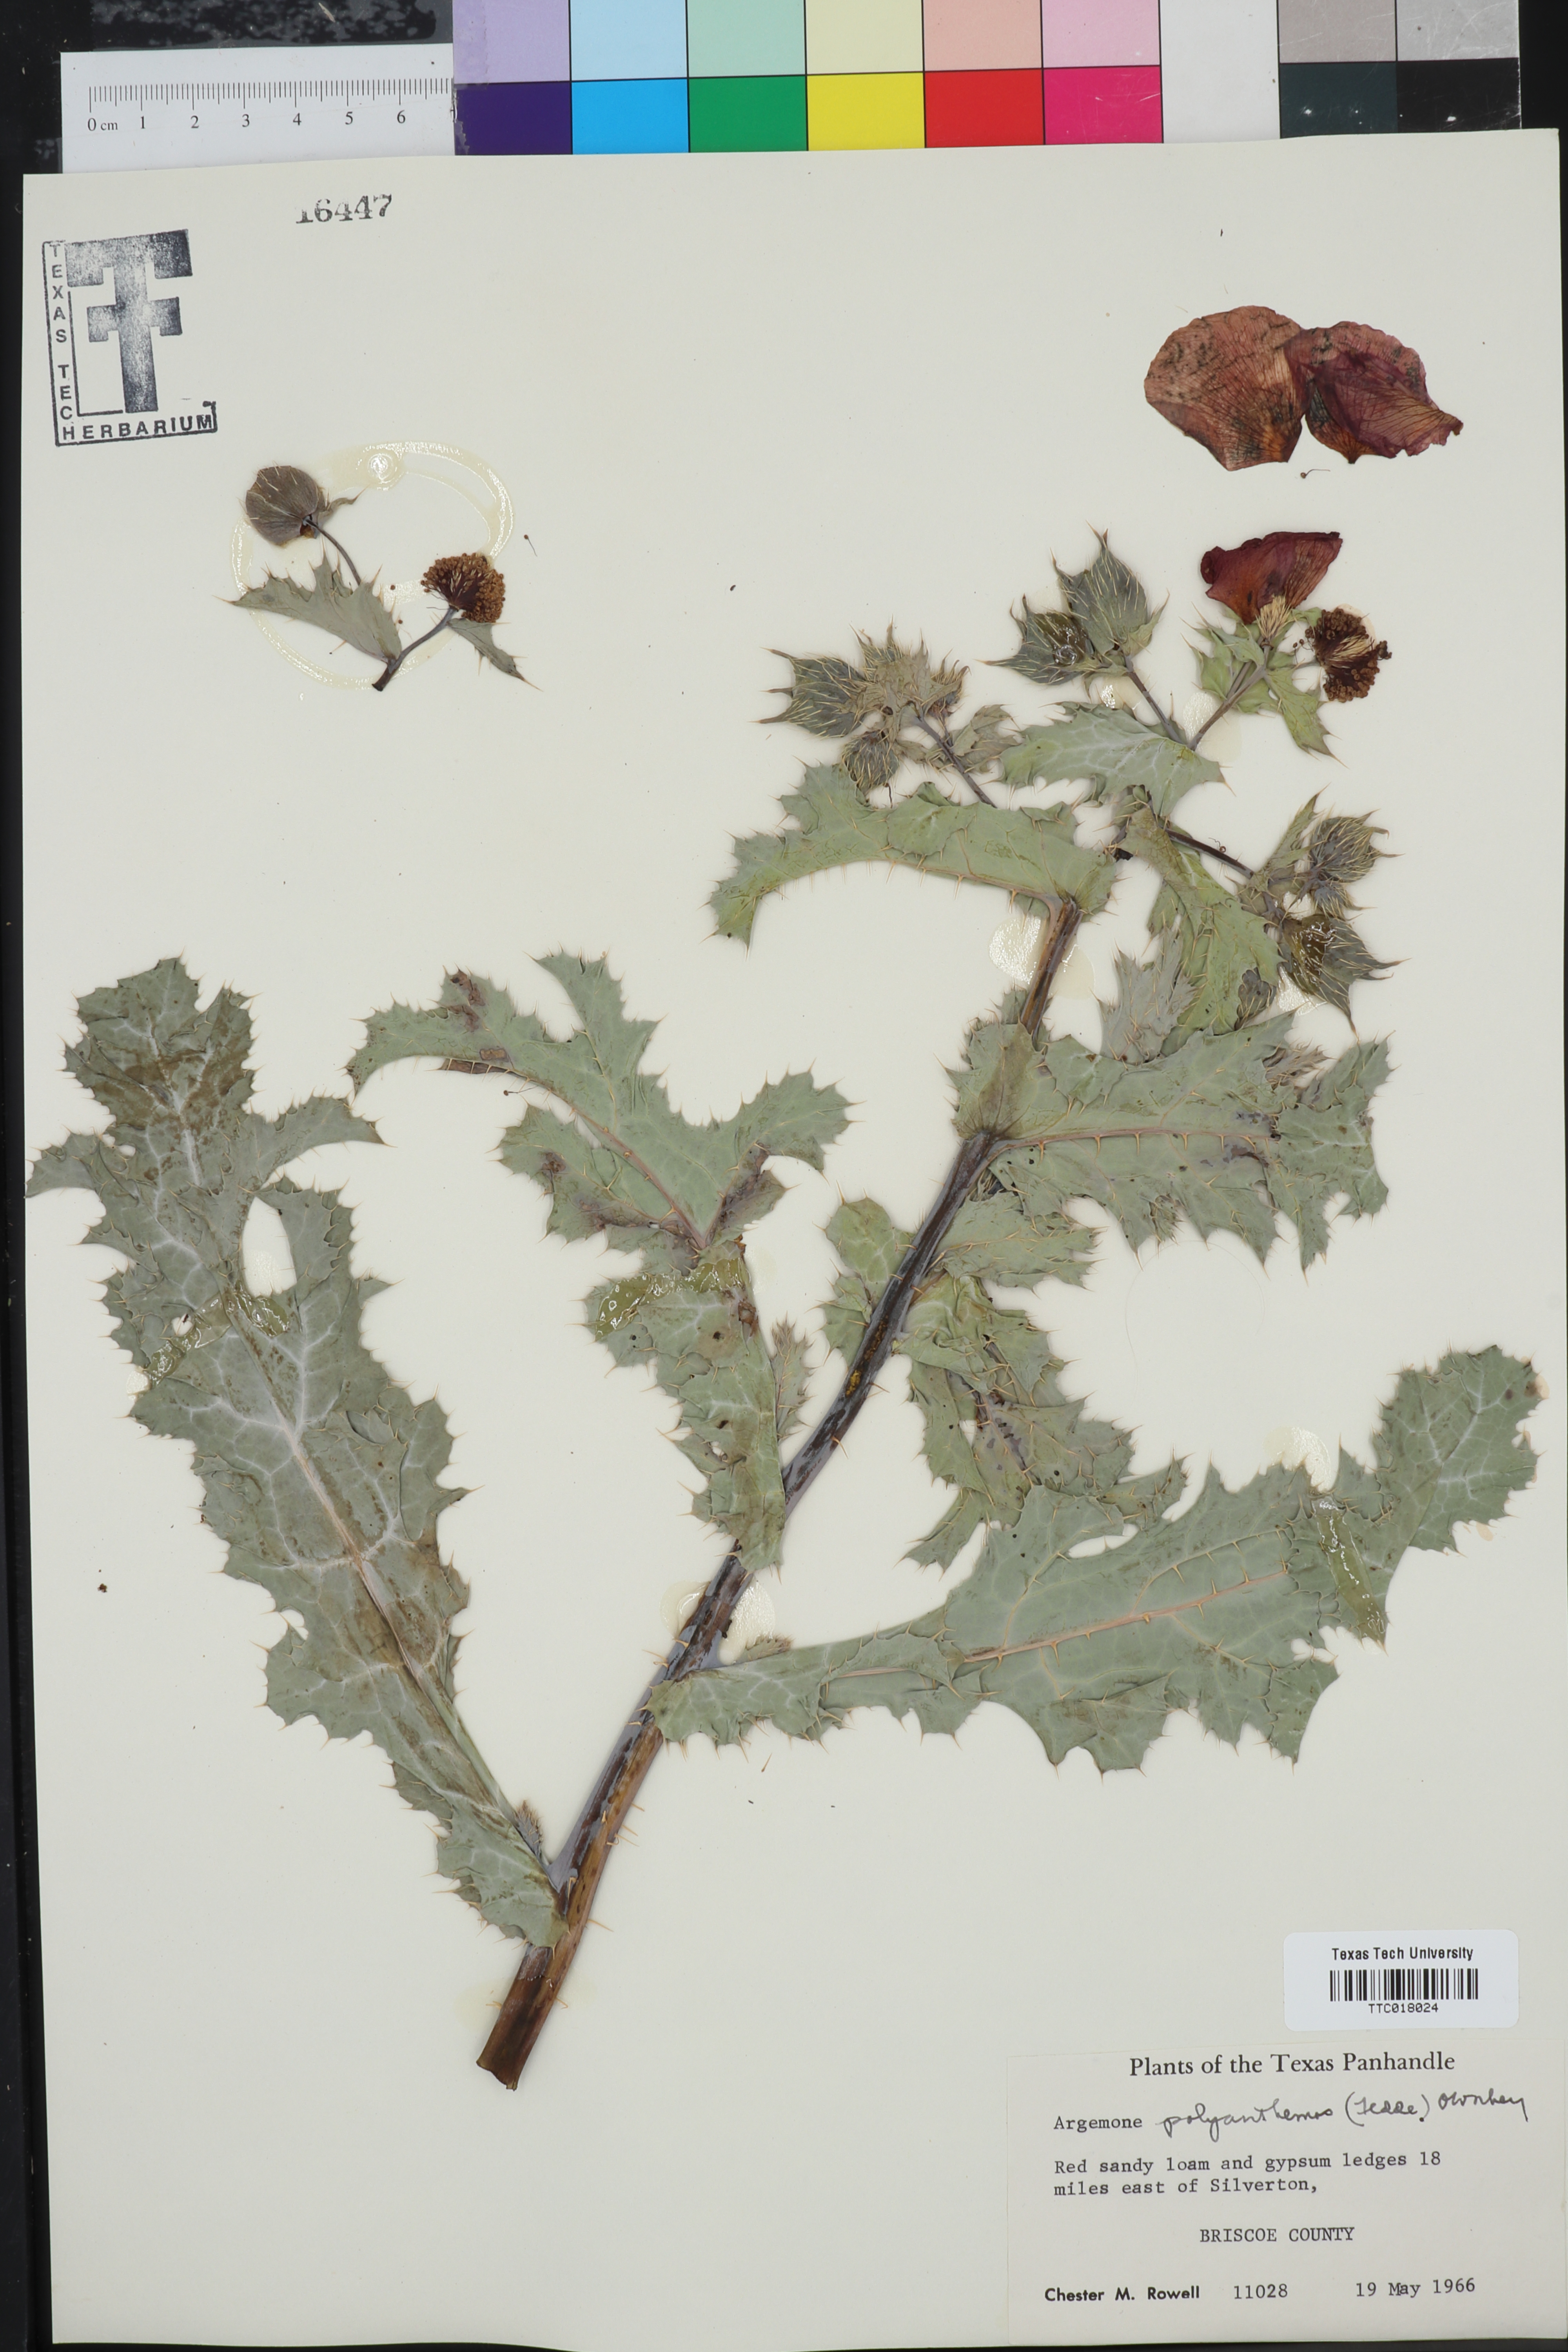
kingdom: Plantae
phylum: Tracheophyta
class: Magnoliopsida
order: Ranunculales
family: Papaveraceae
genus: Argemone
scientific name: Argemone polyanthemos
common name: Plains prickly-poppy
